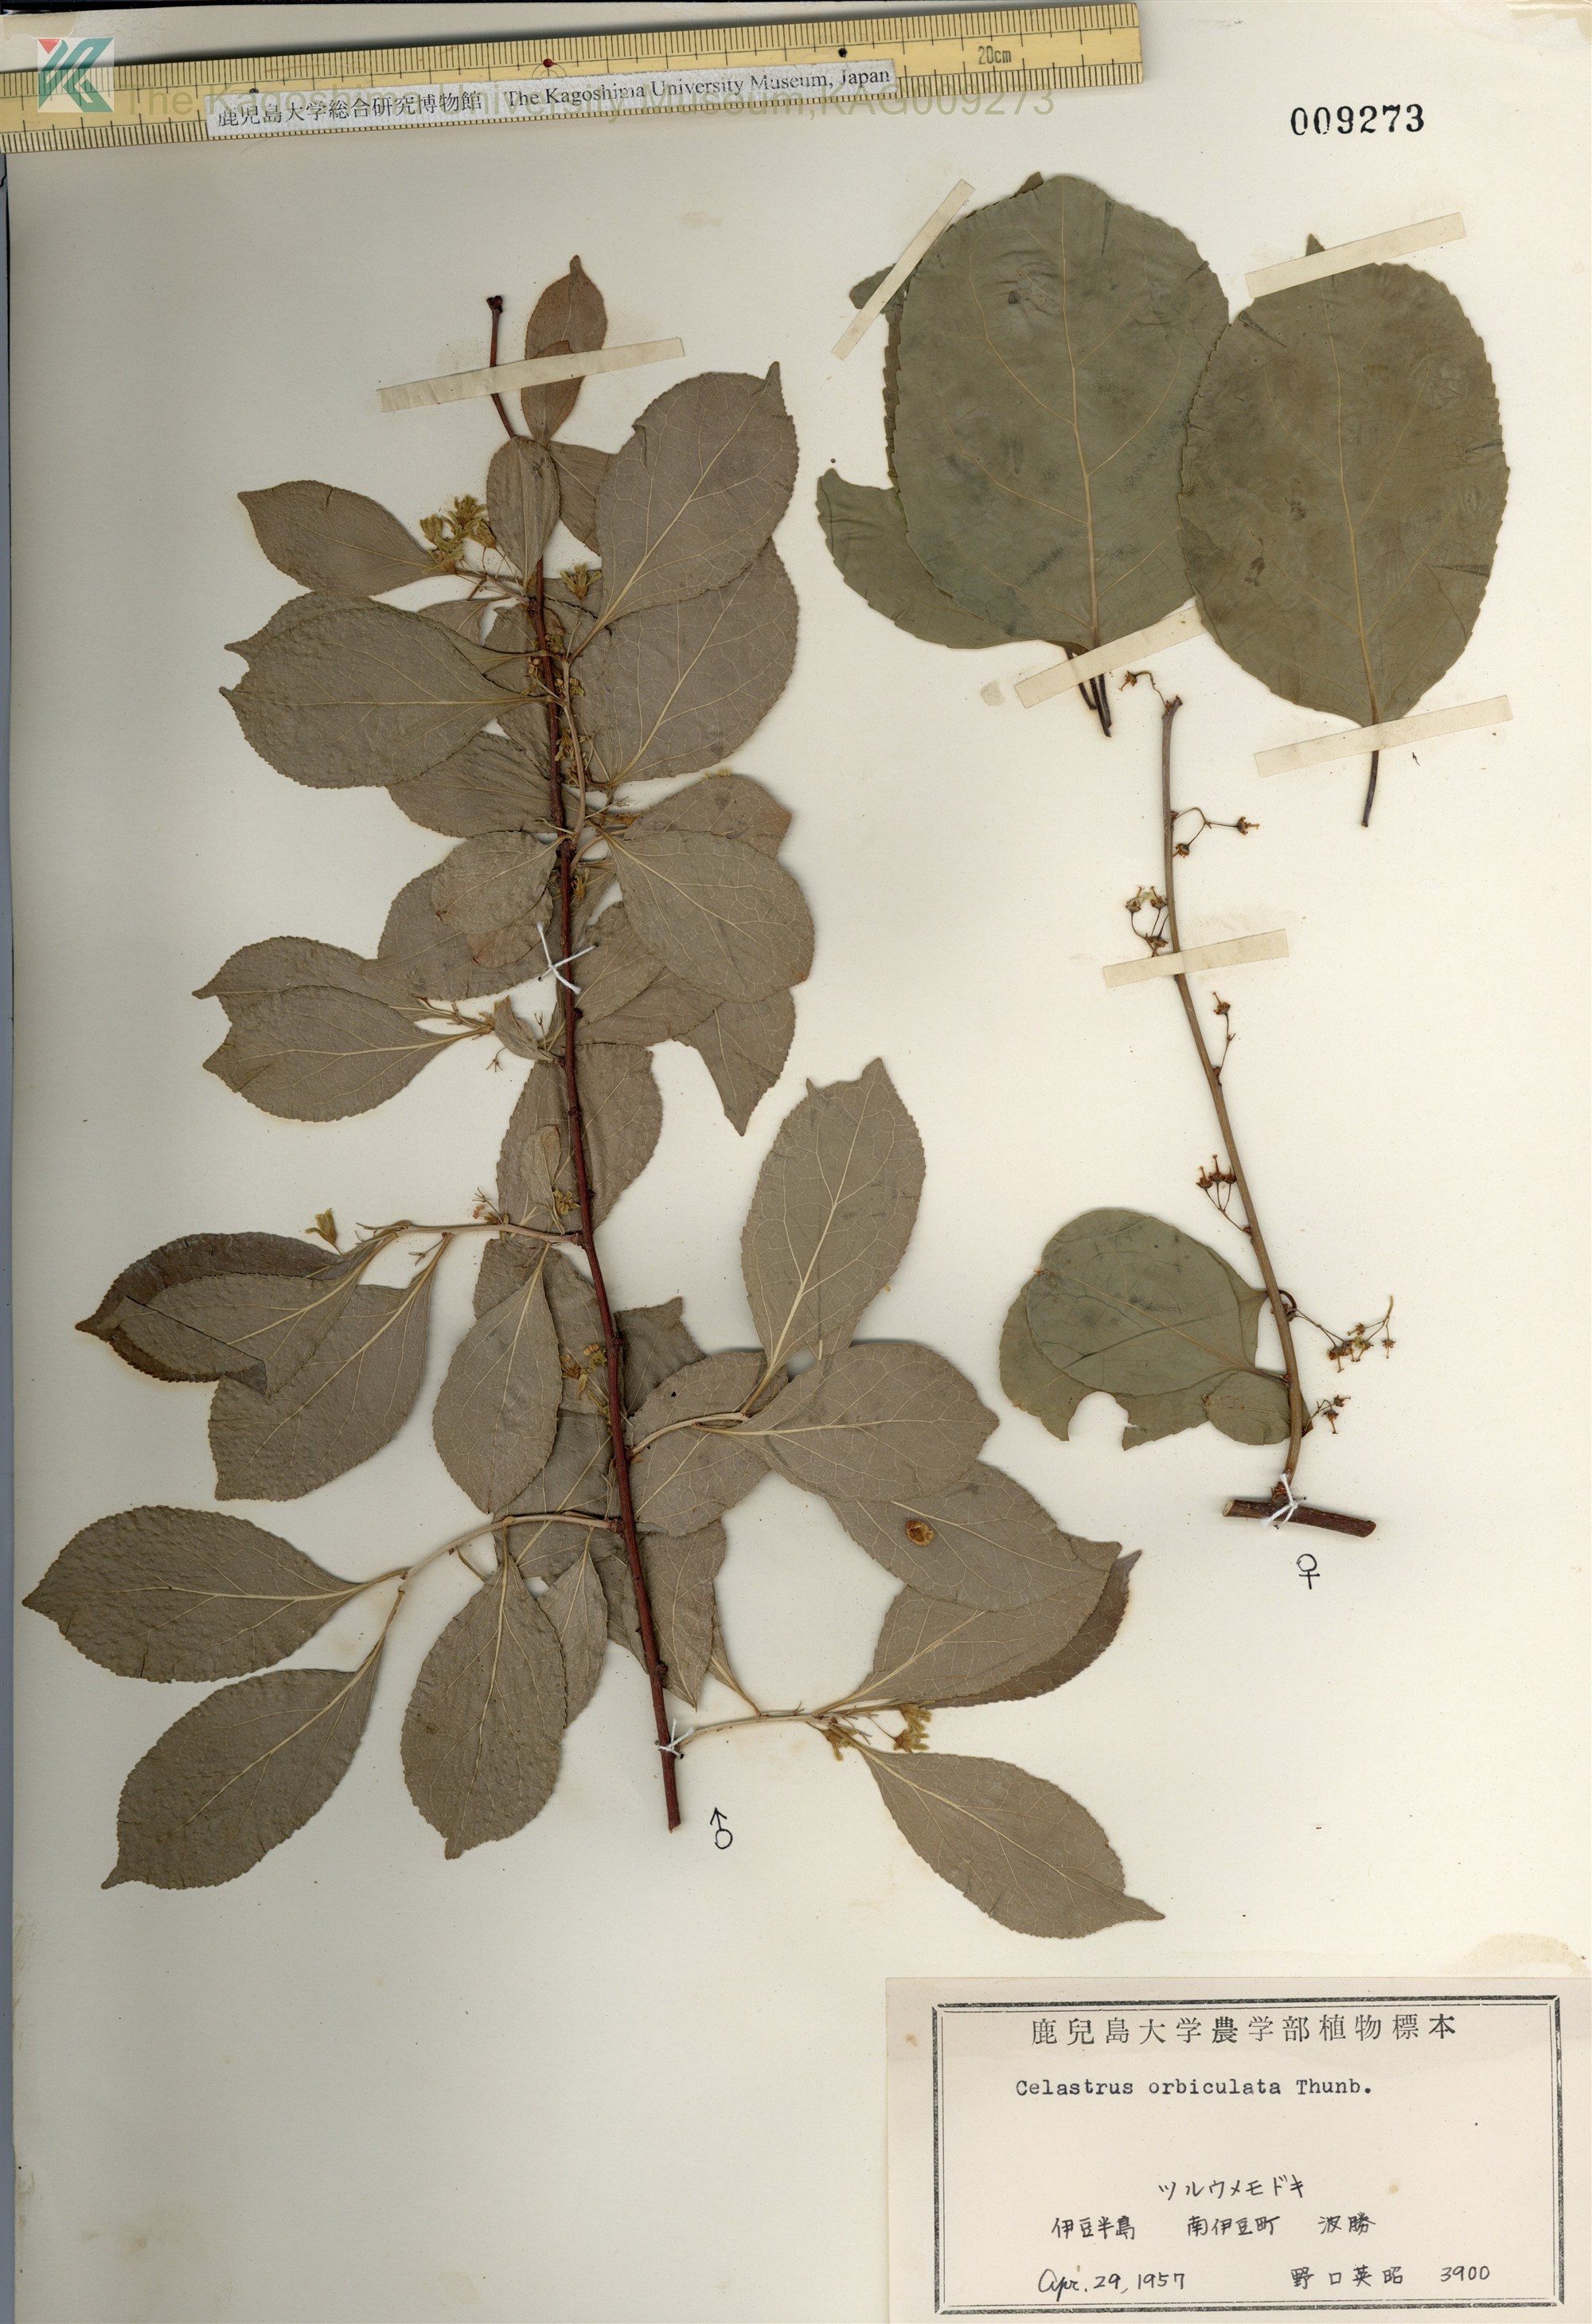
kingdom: Plantae
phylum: Tracheophyta
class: Magnoliopsida
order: Celastrales
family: Celastraceae
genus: Celastrus
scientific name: Celastrus orbiculatus
